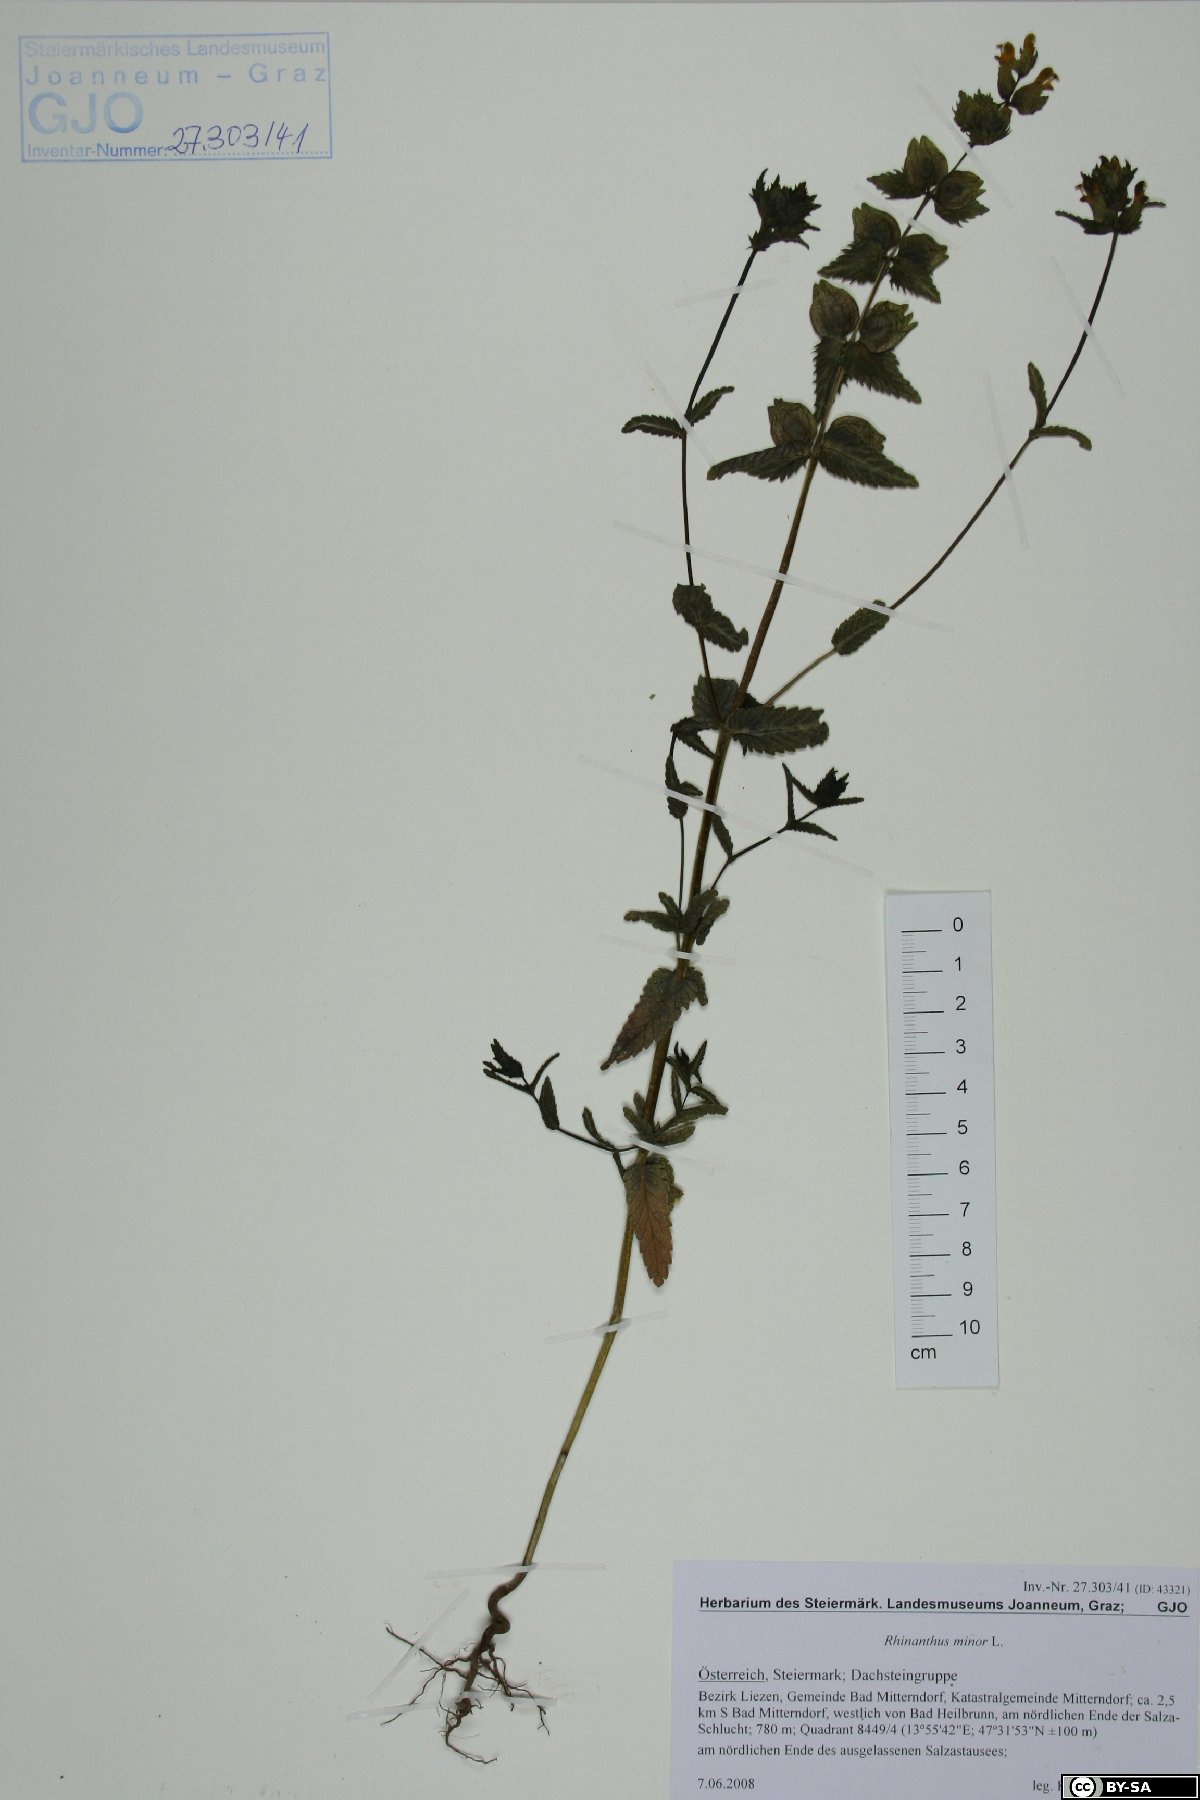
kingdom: Plantae
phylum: Tracheophyta
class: Magnoliopsida
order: Lamiales
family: Orobanchaceae
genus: Rhinanthus
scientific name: Rhinanthus minor
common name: Yellow-rattle
